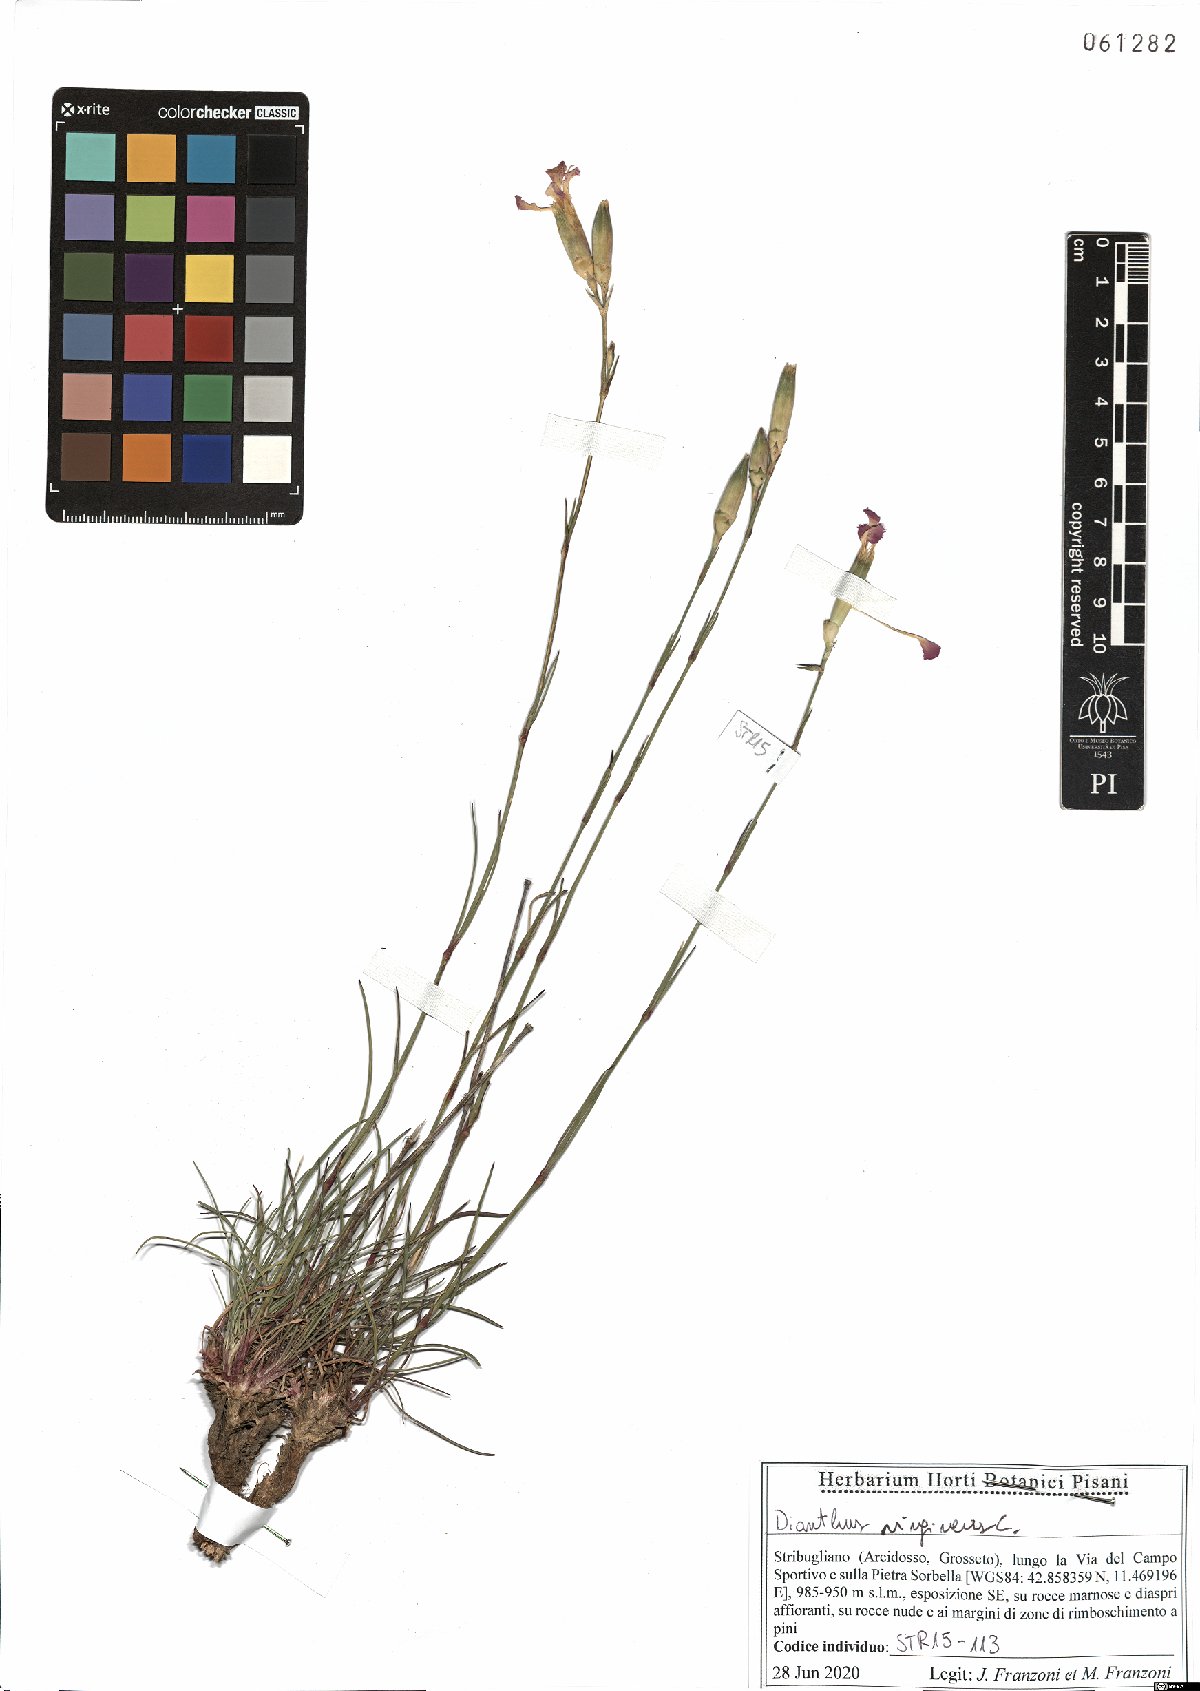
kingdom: Plantae
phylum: Tracheophyta
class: Magnoliopsida
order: Caryophyllales
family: Caryophyllaceae
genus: Dianthus
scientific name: Dianthus virgineus
